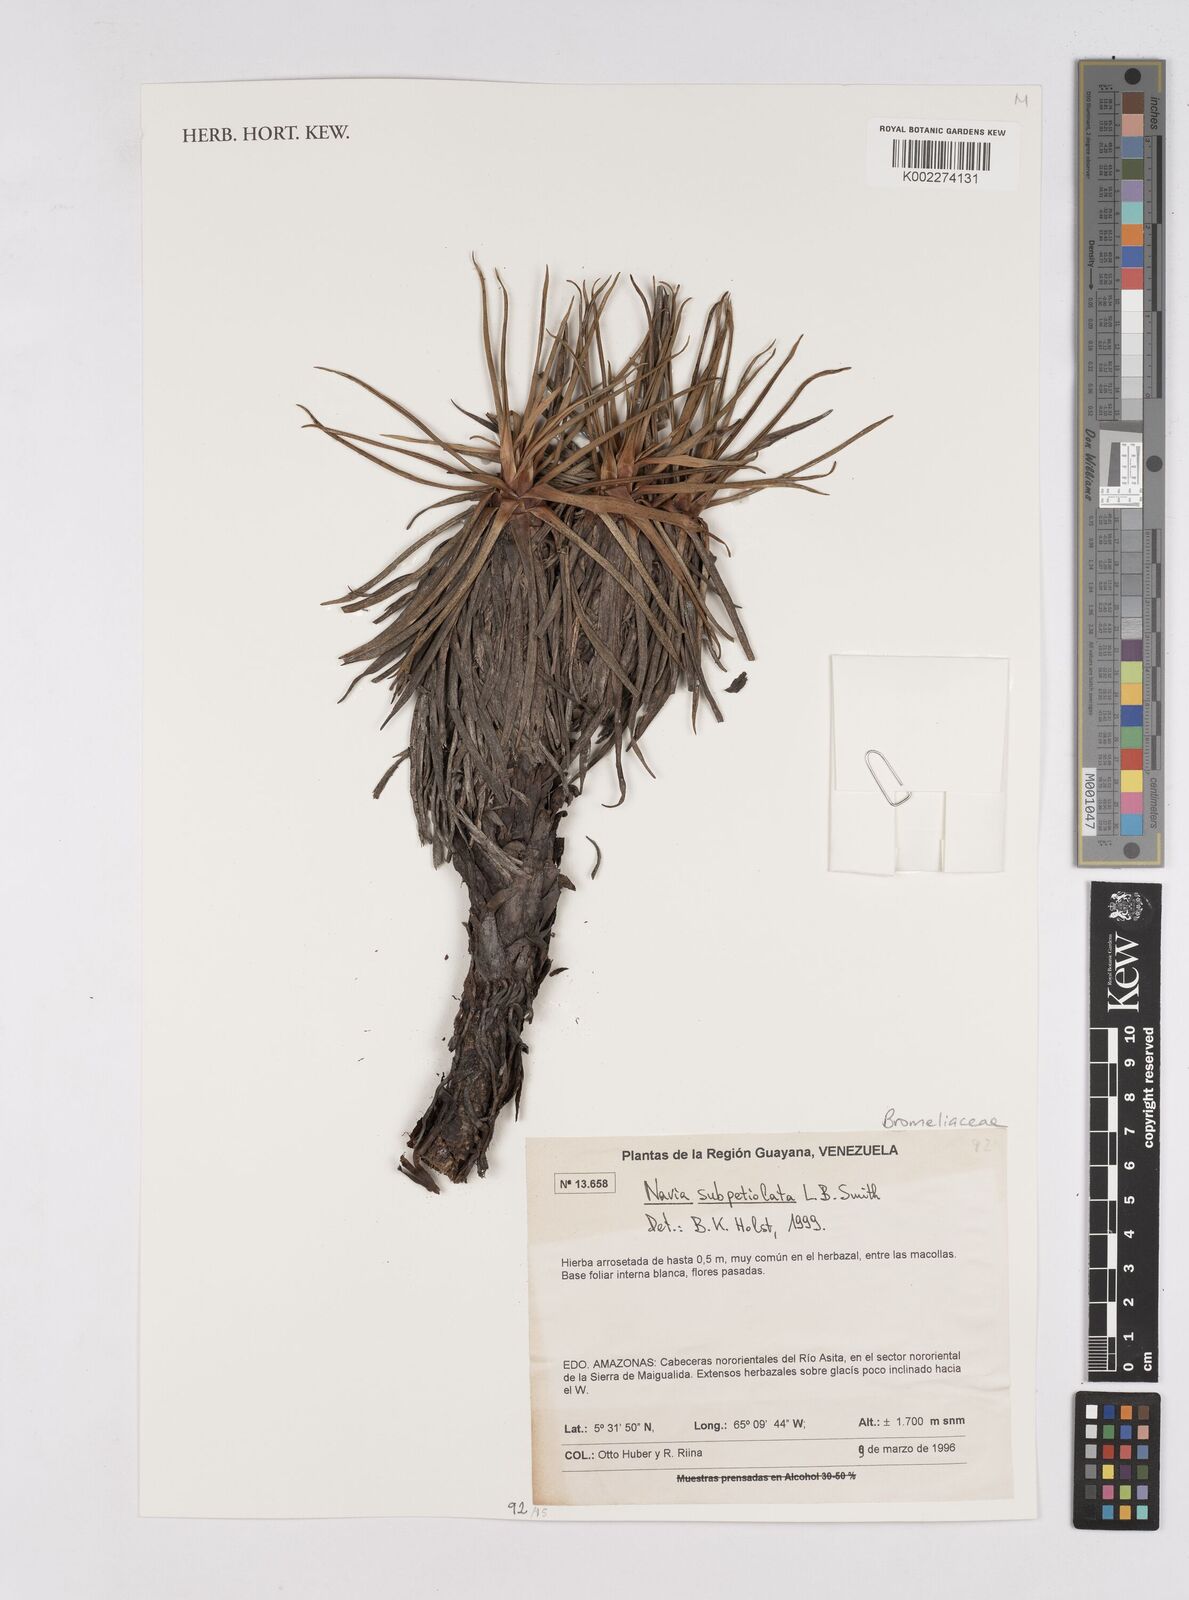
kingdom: Plantae
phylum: Tracheophyta
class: Liliopsida
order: Poales
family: Bromeliaceae
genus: Navia
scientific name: Navia subpetiolata
